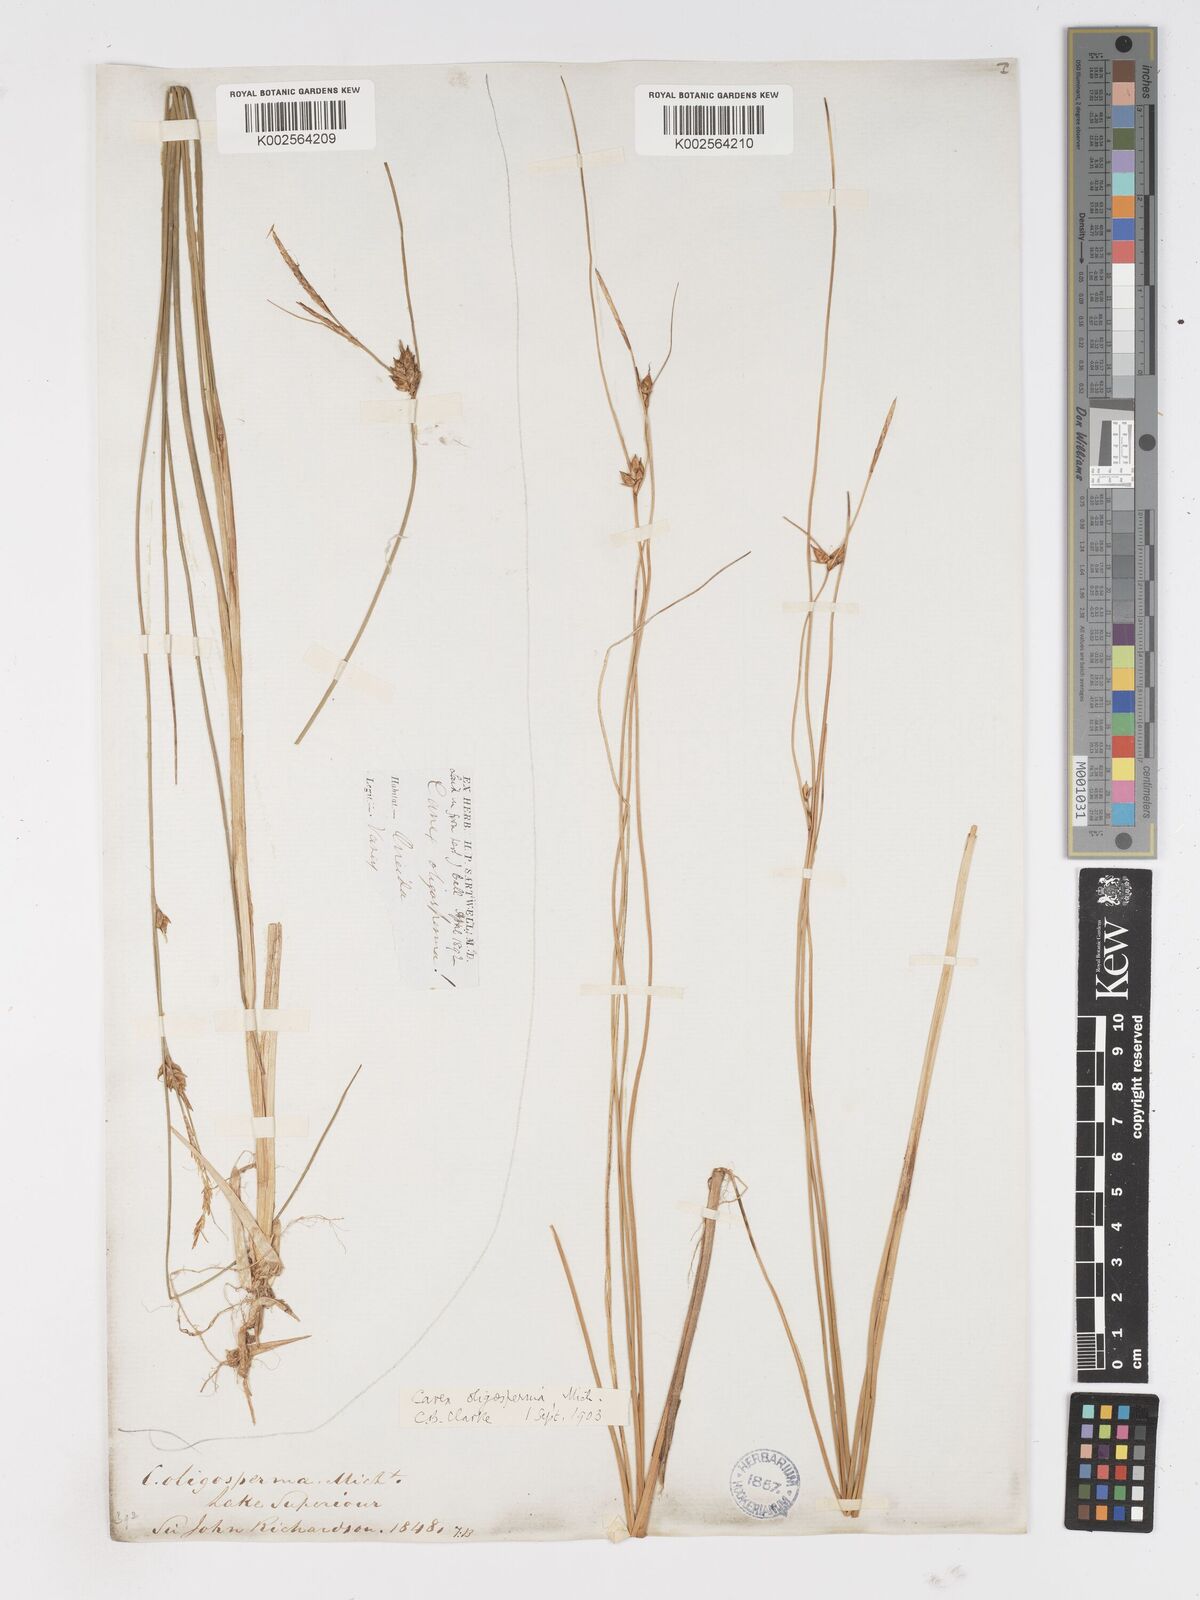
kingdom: Plantae
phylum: Tracheophyta
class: Liliopsida
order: Poales
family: Cyperaceae
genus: Carex
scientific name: Carex oligosperma
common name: Few-seed sedge
